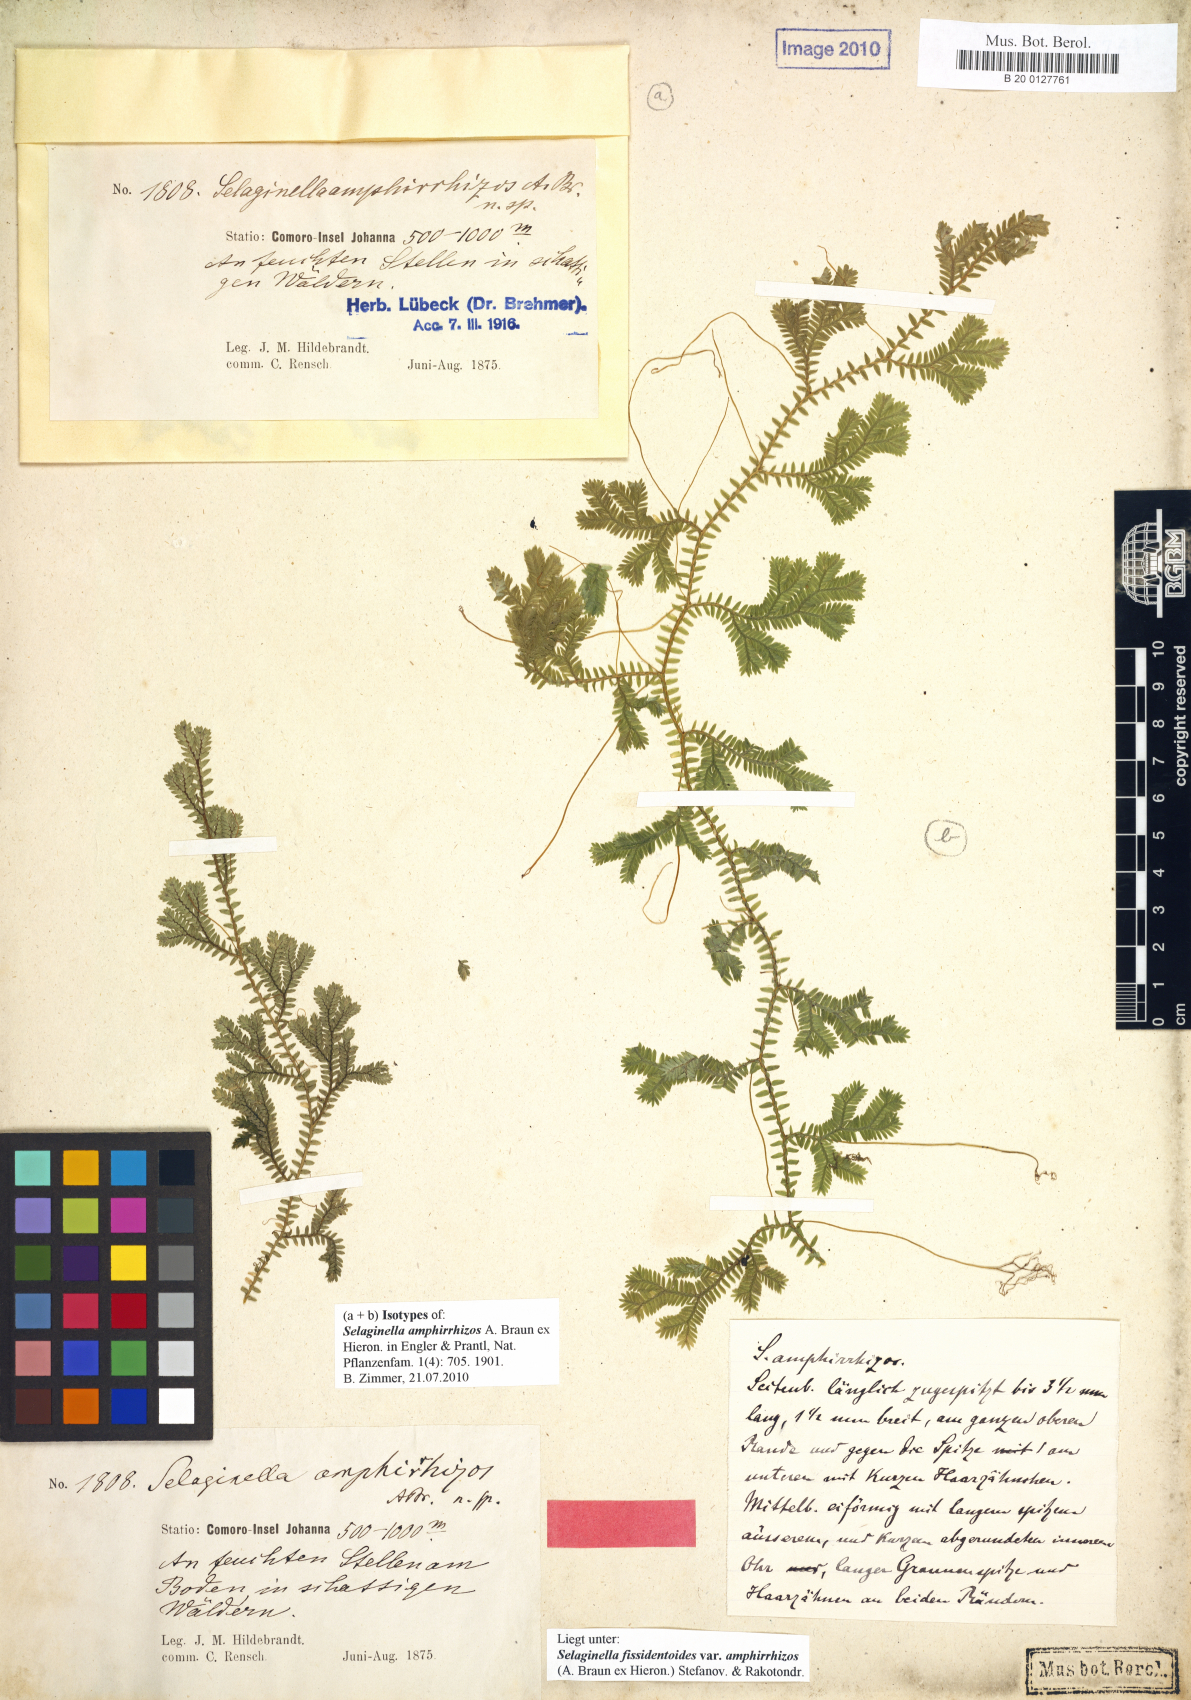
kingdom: Plantae
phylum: Tracheophyta
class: Lycopodiopsida
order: Selaginellales
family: Selaginellaceae
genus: Selaginella
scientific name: Selaginella fissidentoides
